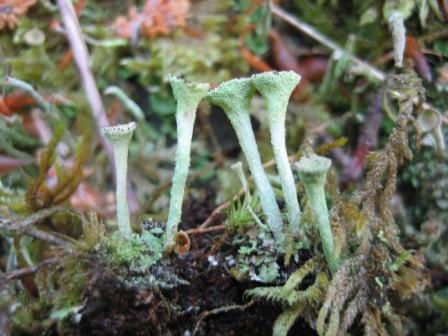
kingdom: Fungi
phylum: Ascomycota
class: Lecanoromycetes
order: Lecanorales
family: Cladoniaceae
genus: Cladonia
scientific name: Cladonia fimbriata
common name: bleggrøn bægerlav
